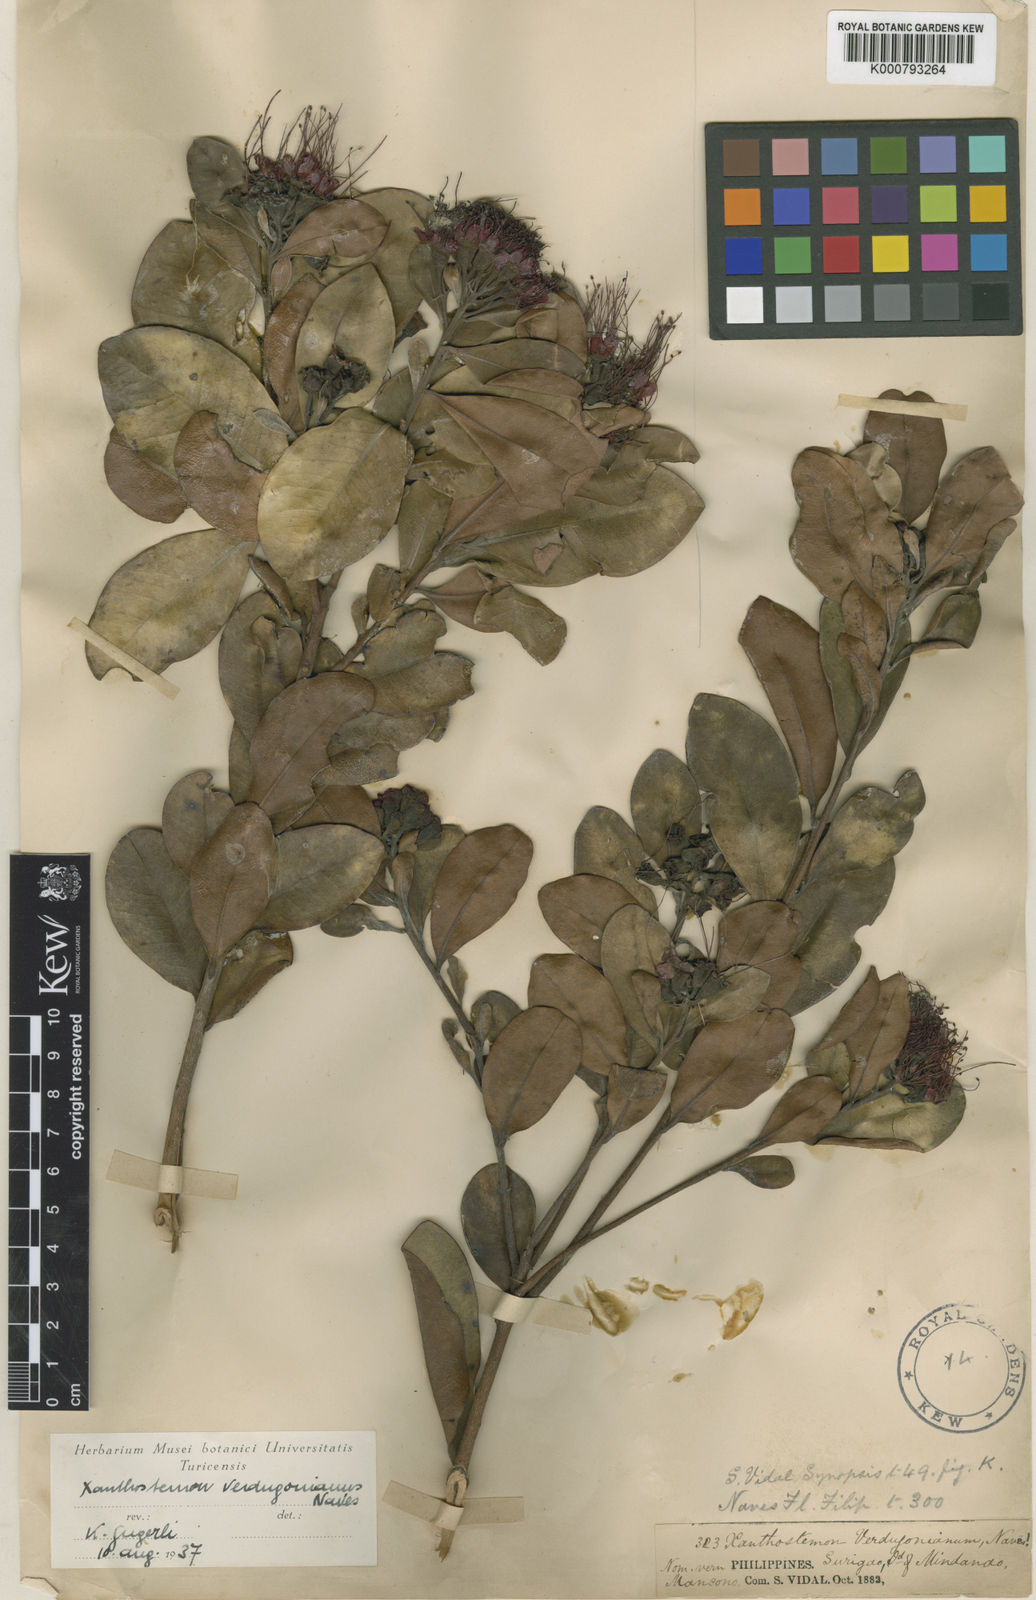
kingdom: Plantae
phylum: Tracheophyta
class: Magnoliopsida
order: Myrtales
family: Myrtaceae
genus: Xanthostemon
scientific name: Xanthostemon
